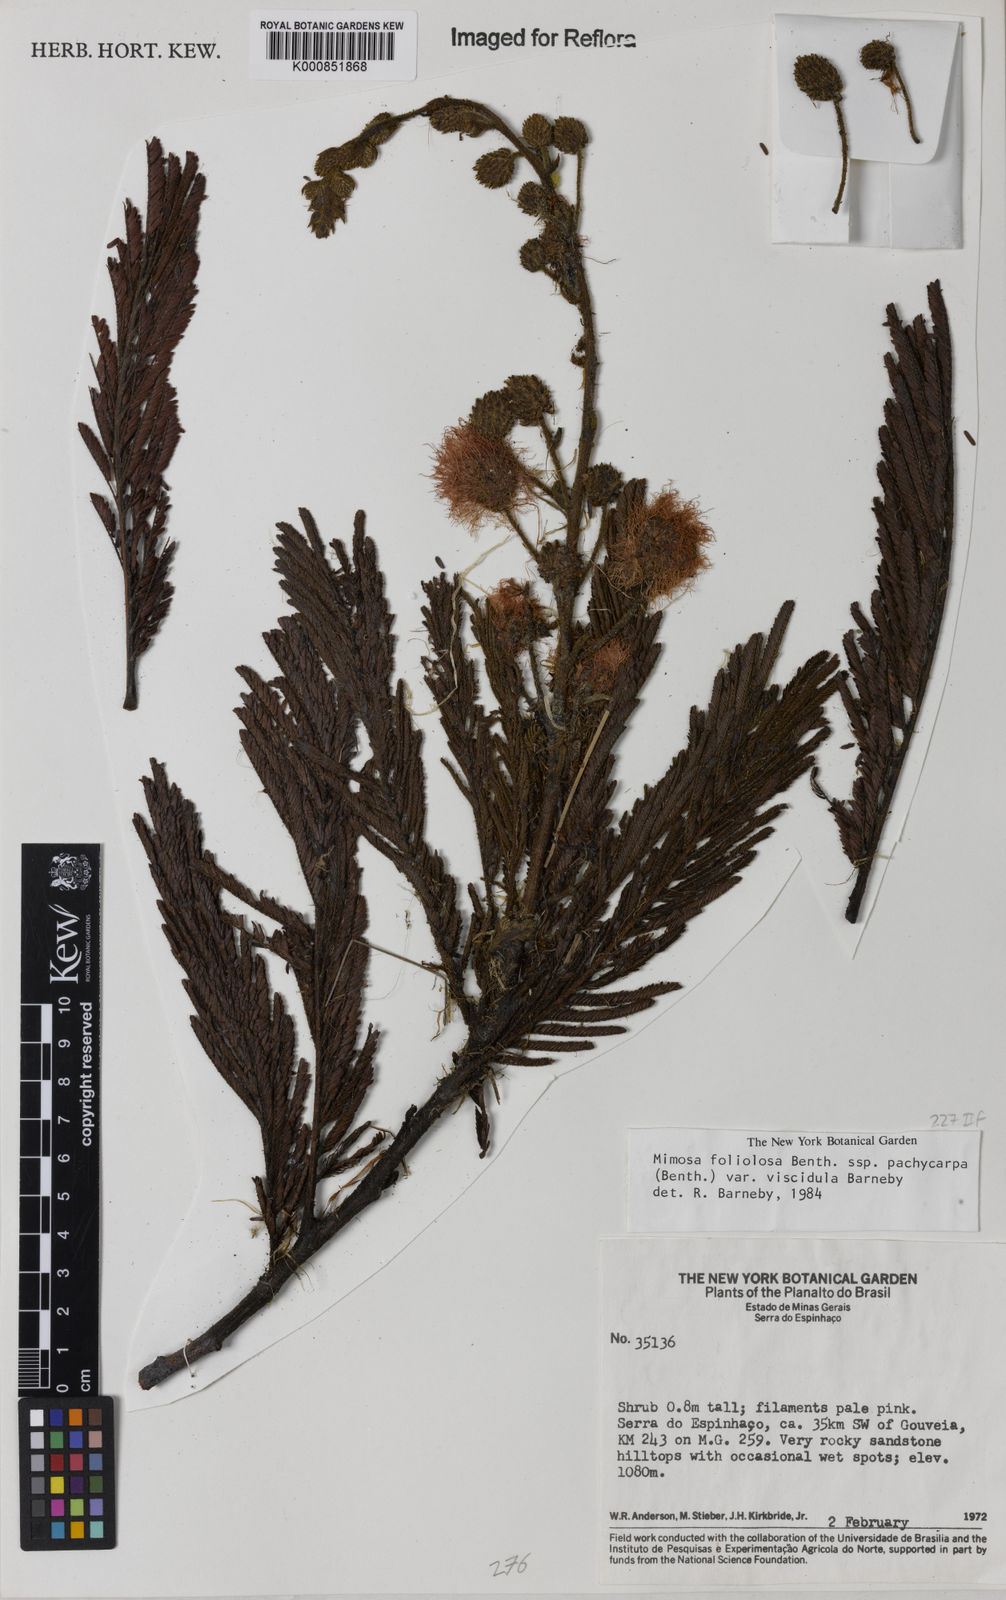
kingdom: Plantae
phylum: Tracheophyta
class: Magnoliopsida
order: Fabales
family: Fabaceae
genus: Mimosa
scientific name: Mimosa foliolosa
